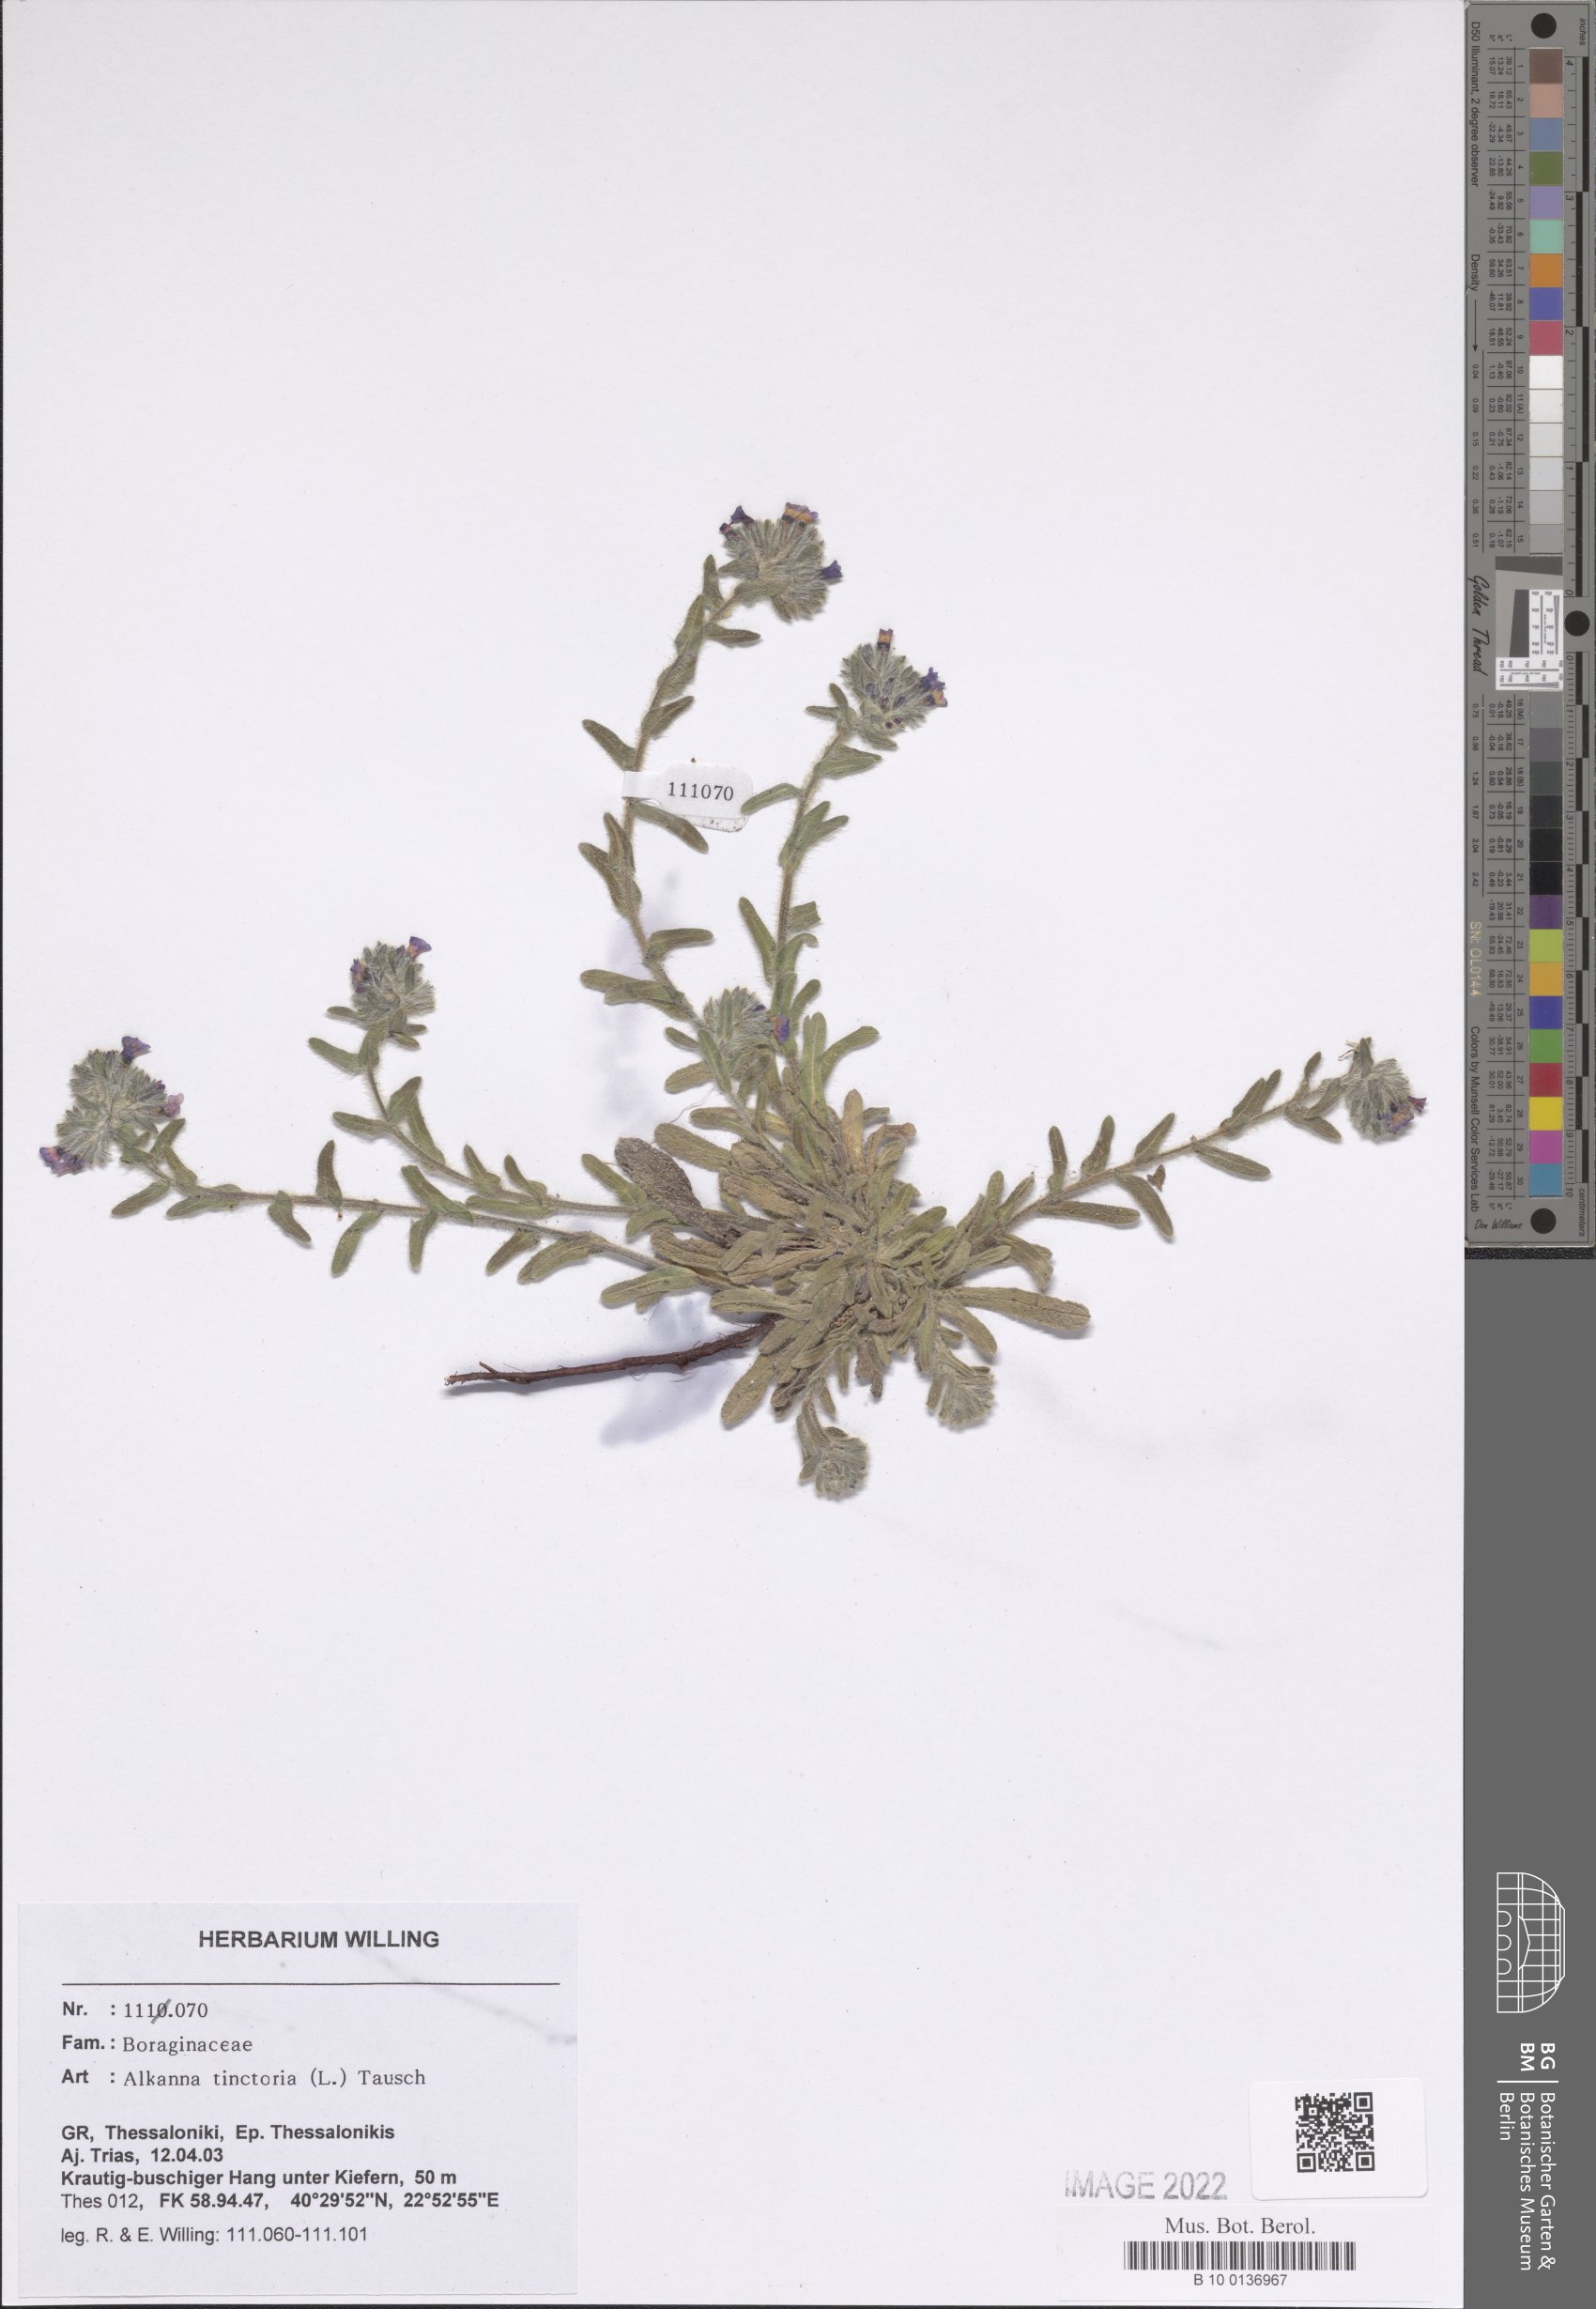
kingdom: Plantae
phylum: Tracheophyta
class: Magnoliopsida
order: Boraginales
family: Boraginaceae
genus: Alkanna
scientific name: Alkanna tinctoria
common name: Dyer's-alkanet
